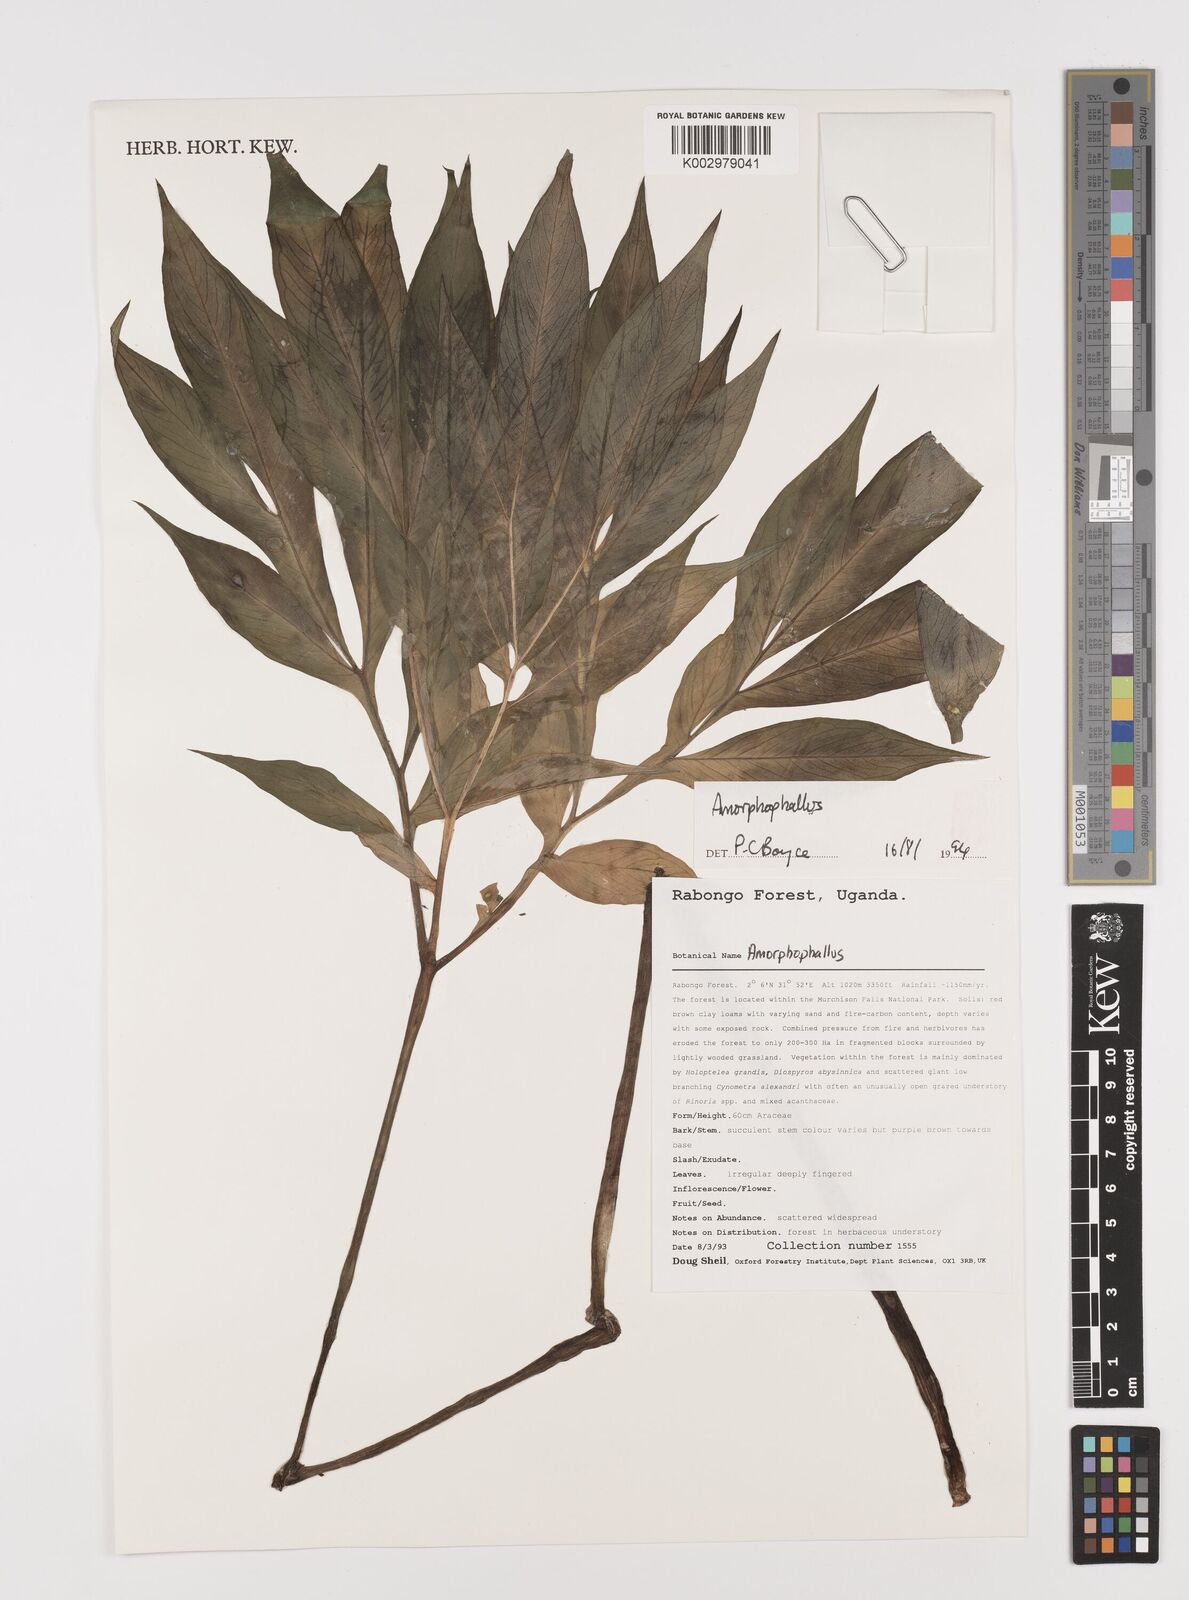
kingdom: Plantae
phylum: Tracheophyta
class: Liliopsida
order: Alismatales
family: Araceae
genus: Amorphophallus
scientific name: Amorphophallus
